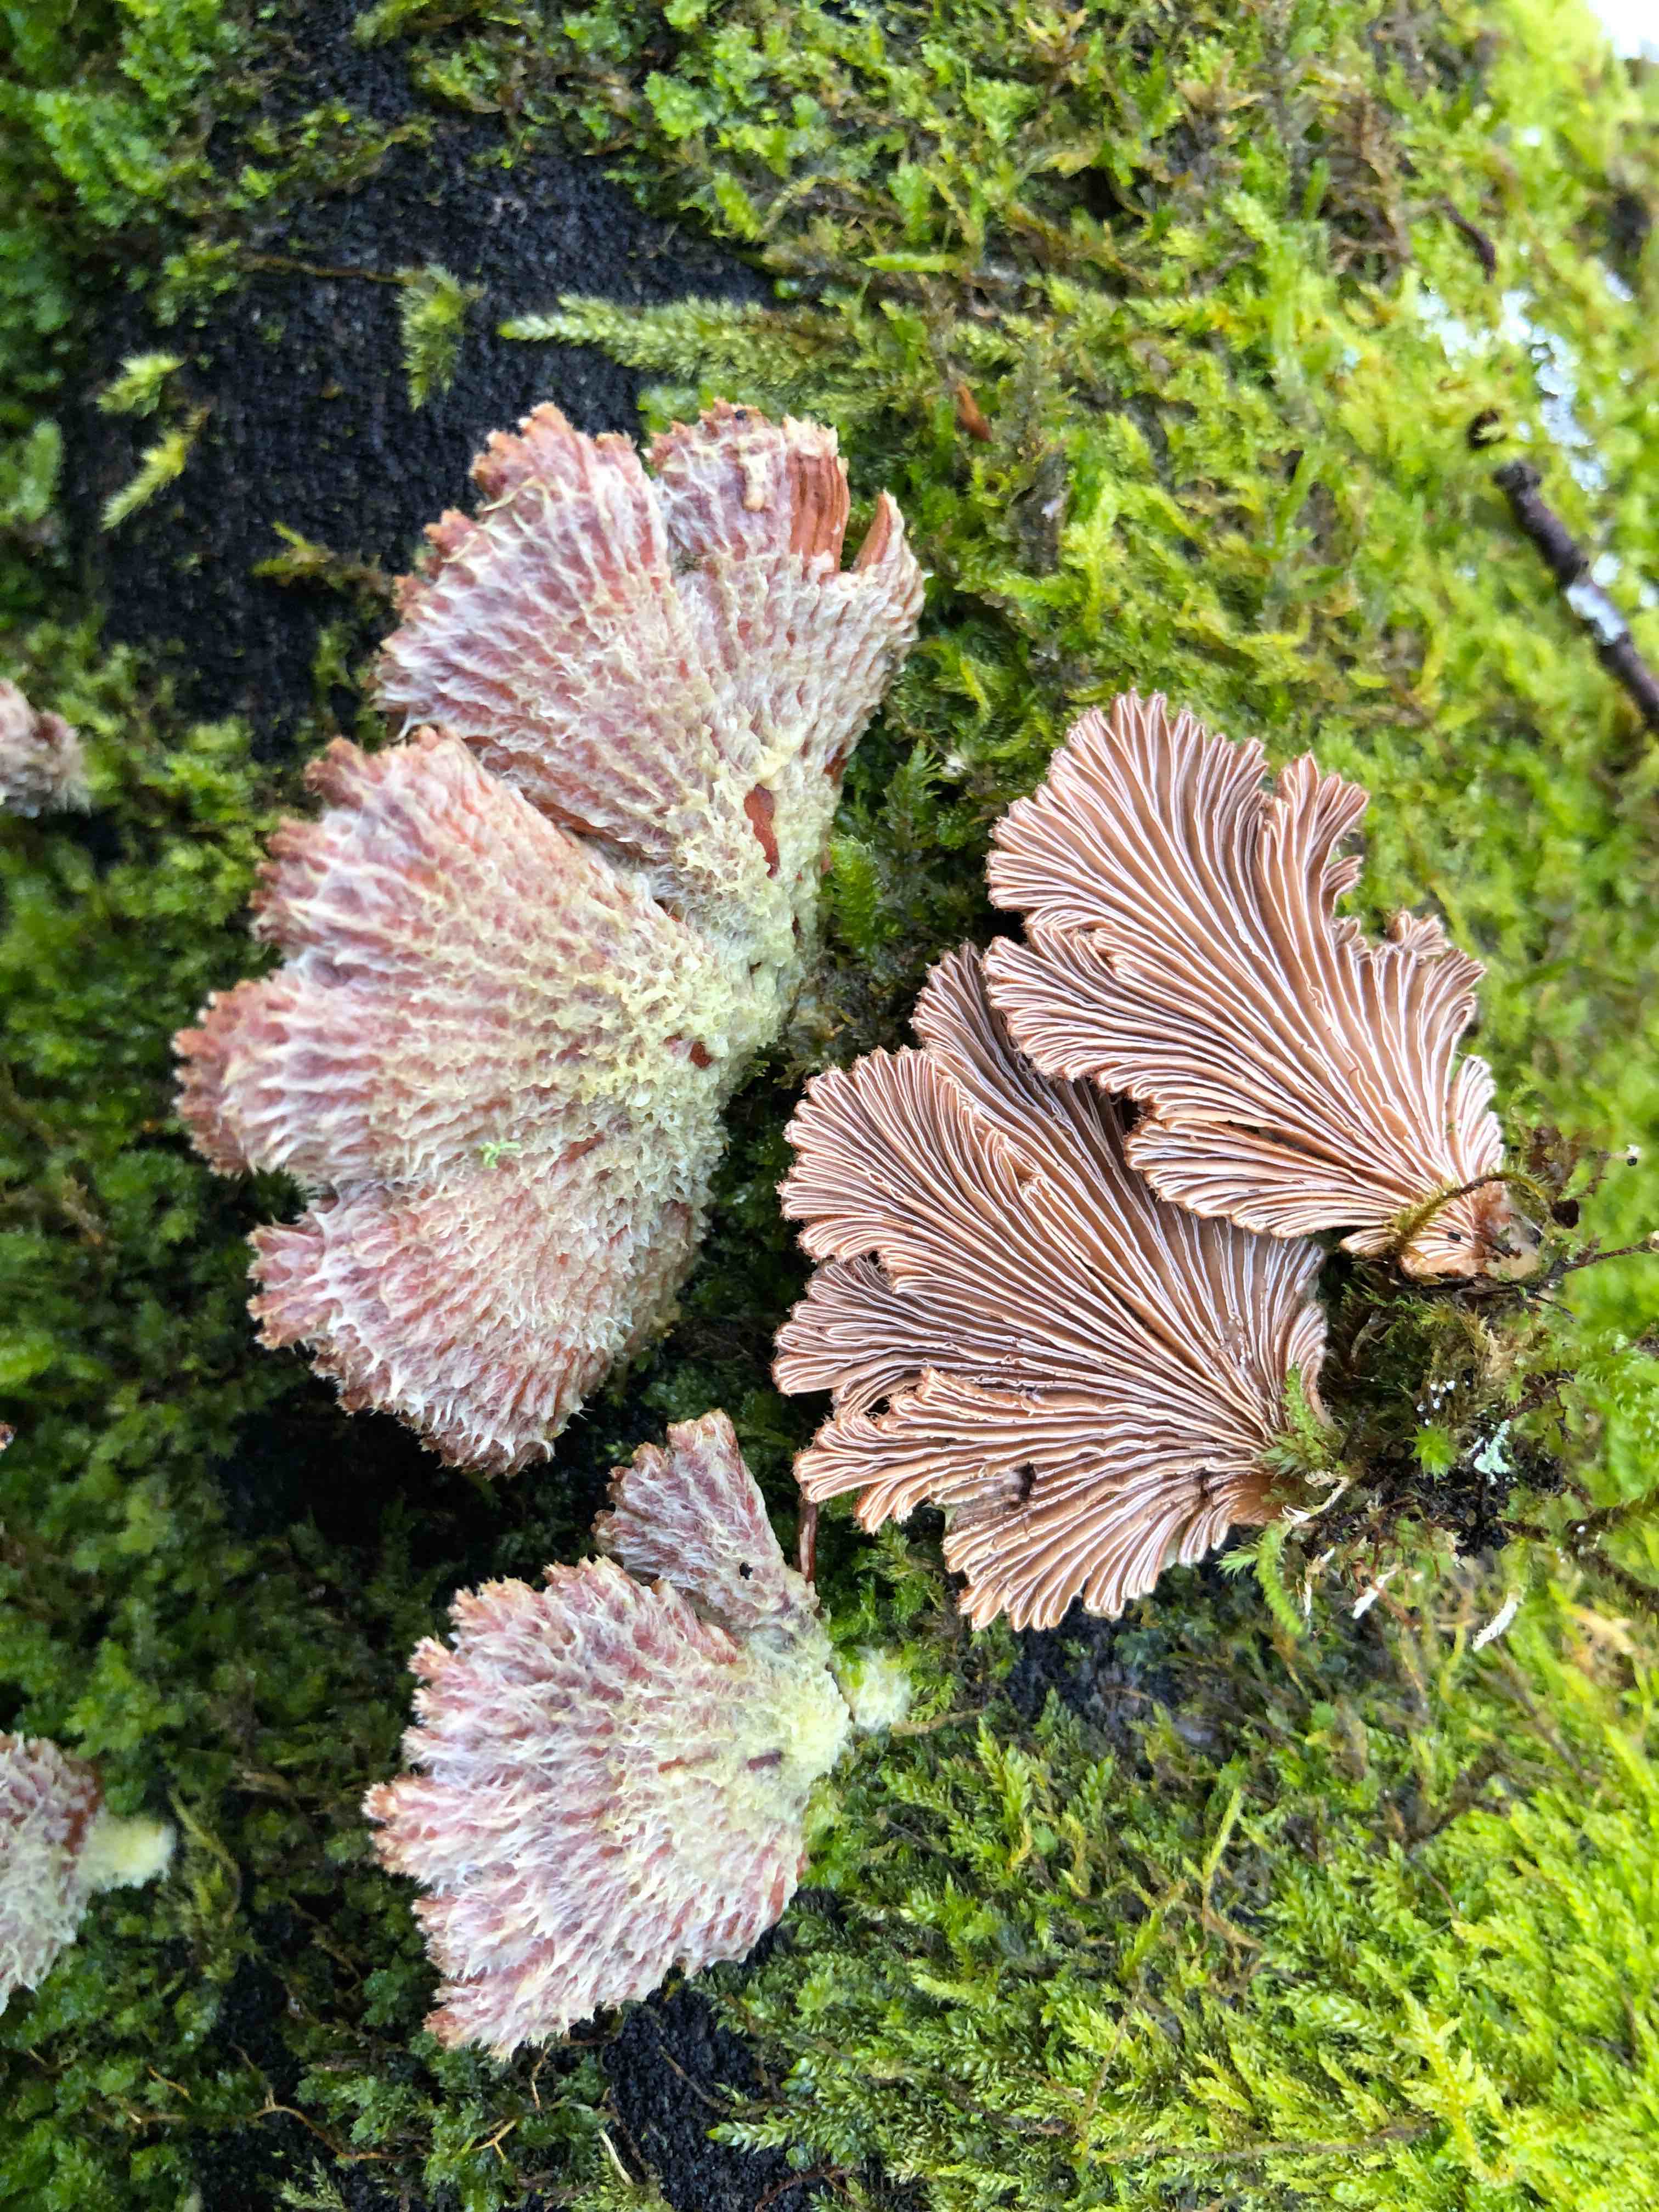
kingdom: Fungi
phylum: Basidiomycota
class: Agaricomycetes
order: Agaricales
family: Schizophyllaceae
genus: Schizophyllum
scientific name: Schizophyllum commune
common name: kløvblad
